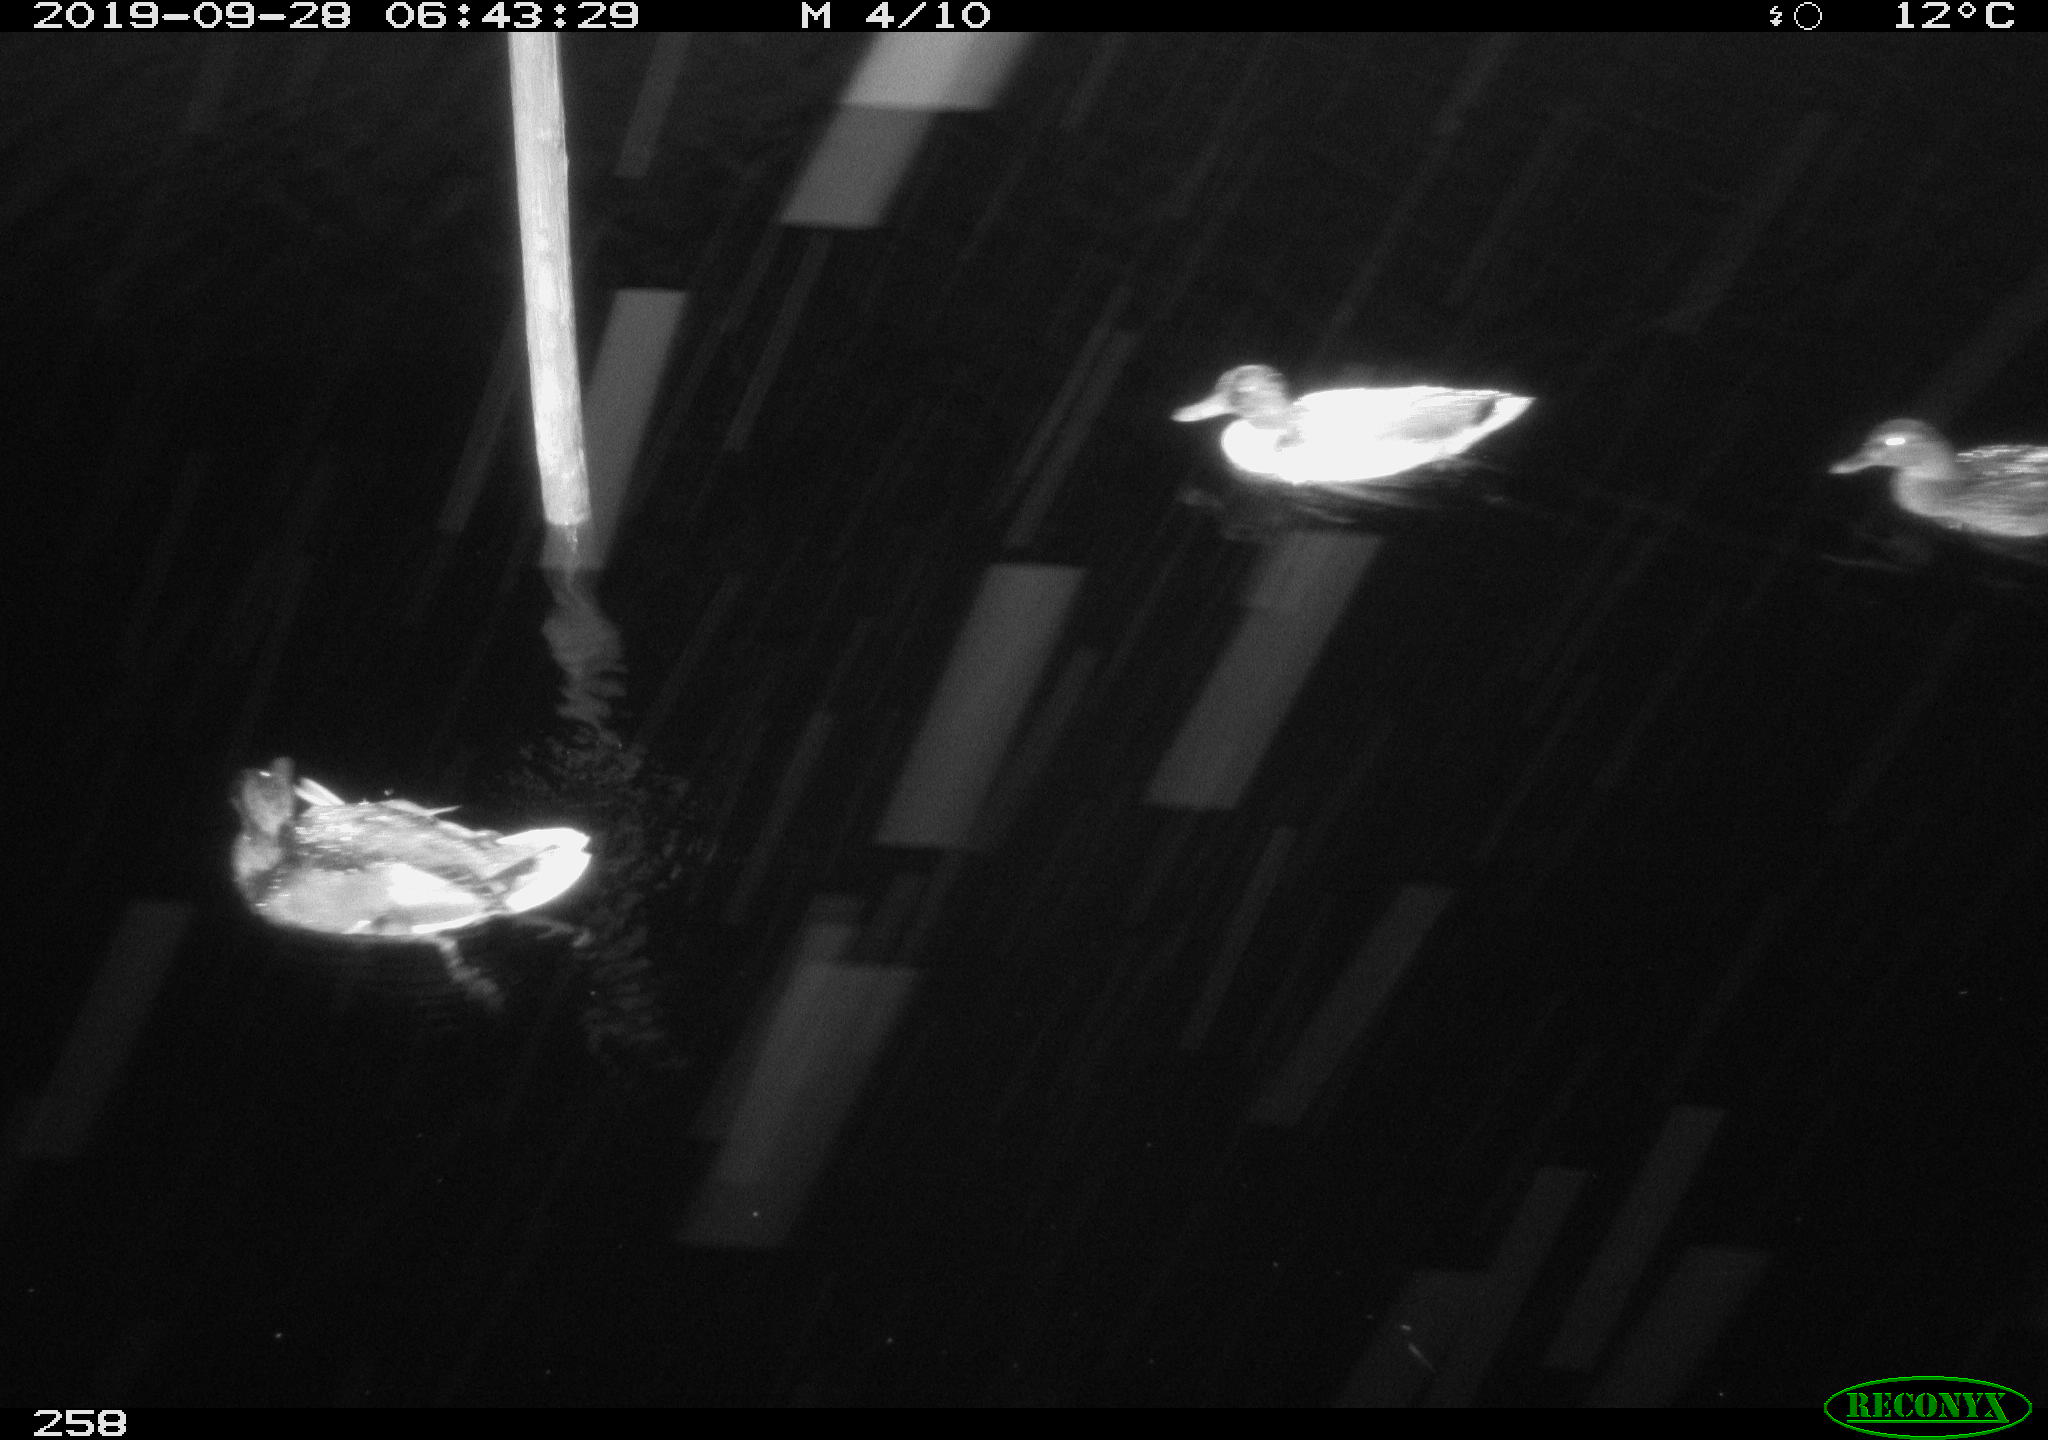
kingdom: Animalia
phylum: Chordata
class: Aves
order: Anseriformes
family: Anatidae
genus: Anas
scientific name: Anas platyrhynchos
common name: Mallard
